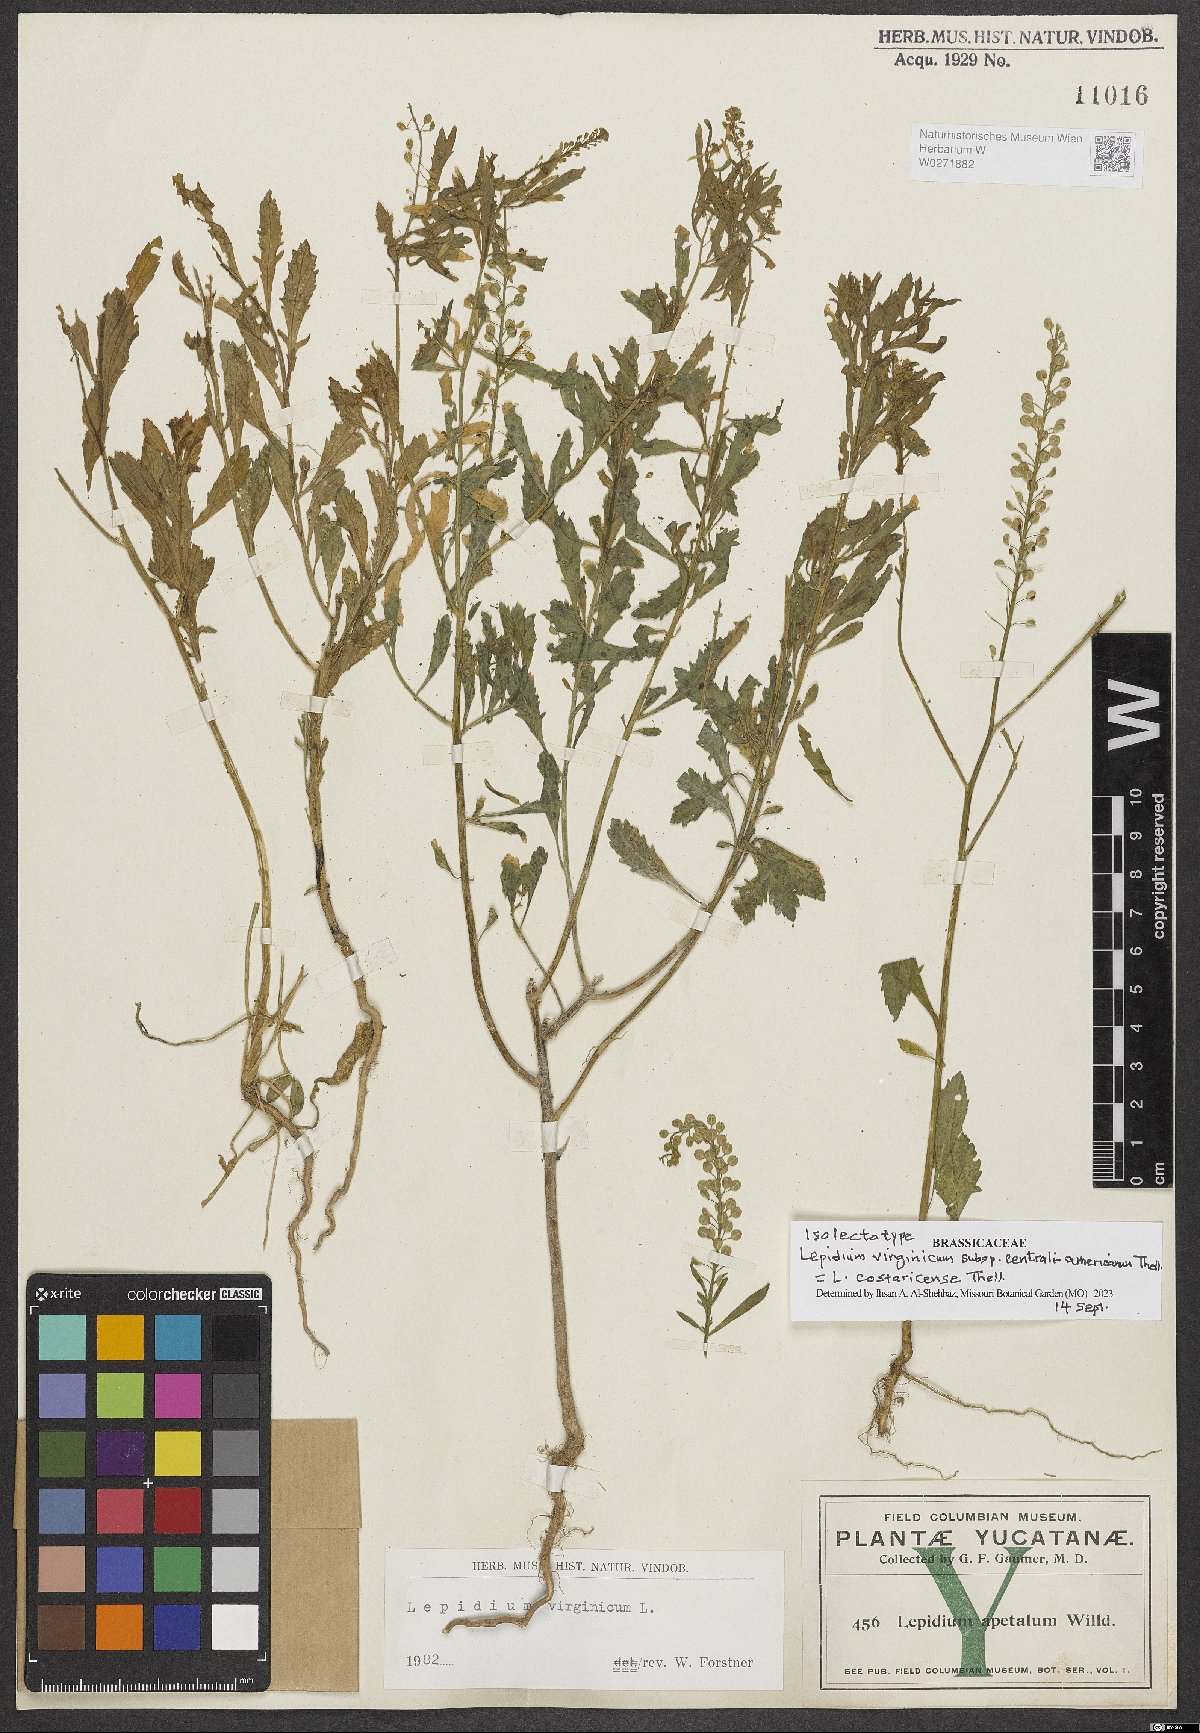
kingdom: Plantae
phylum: Tracheophyta
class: Magnoliopsida
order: Brassicales
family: Brassicaceae
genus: Lepidium
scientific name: Lepidium costaricense
